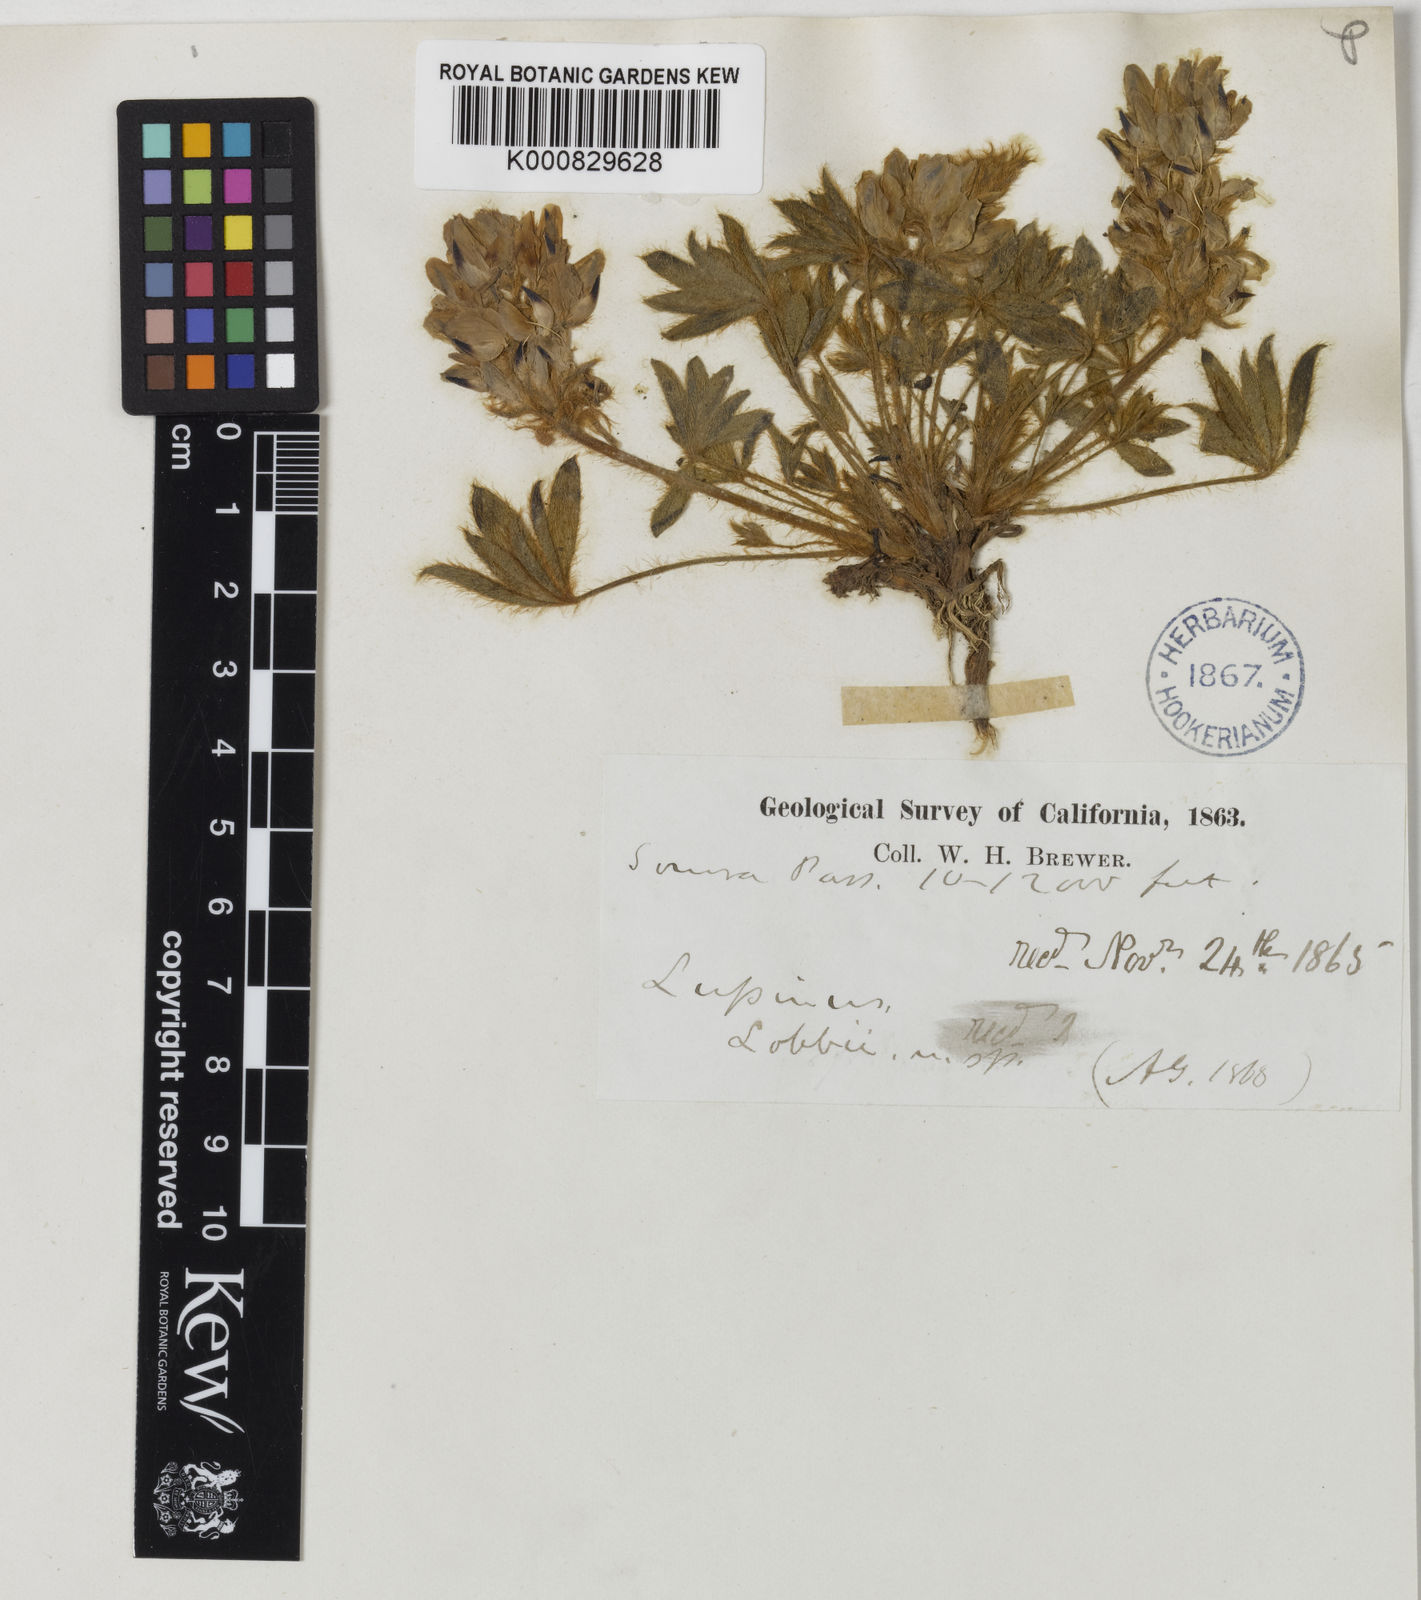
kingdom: Plantae
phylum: Tracheophyta
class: Magnoliopsida
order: Fabales
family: Fabaceae
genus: Lupinus
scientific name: Lupinus
